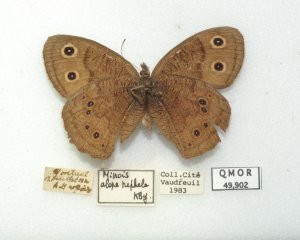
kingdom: Animalia
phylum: Arthropoda
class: Insecta
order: Lepidoptera
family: Nymphalidae
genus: Cercyonis
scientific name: Cercyonis pegala
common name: Common Wood-Nymph
